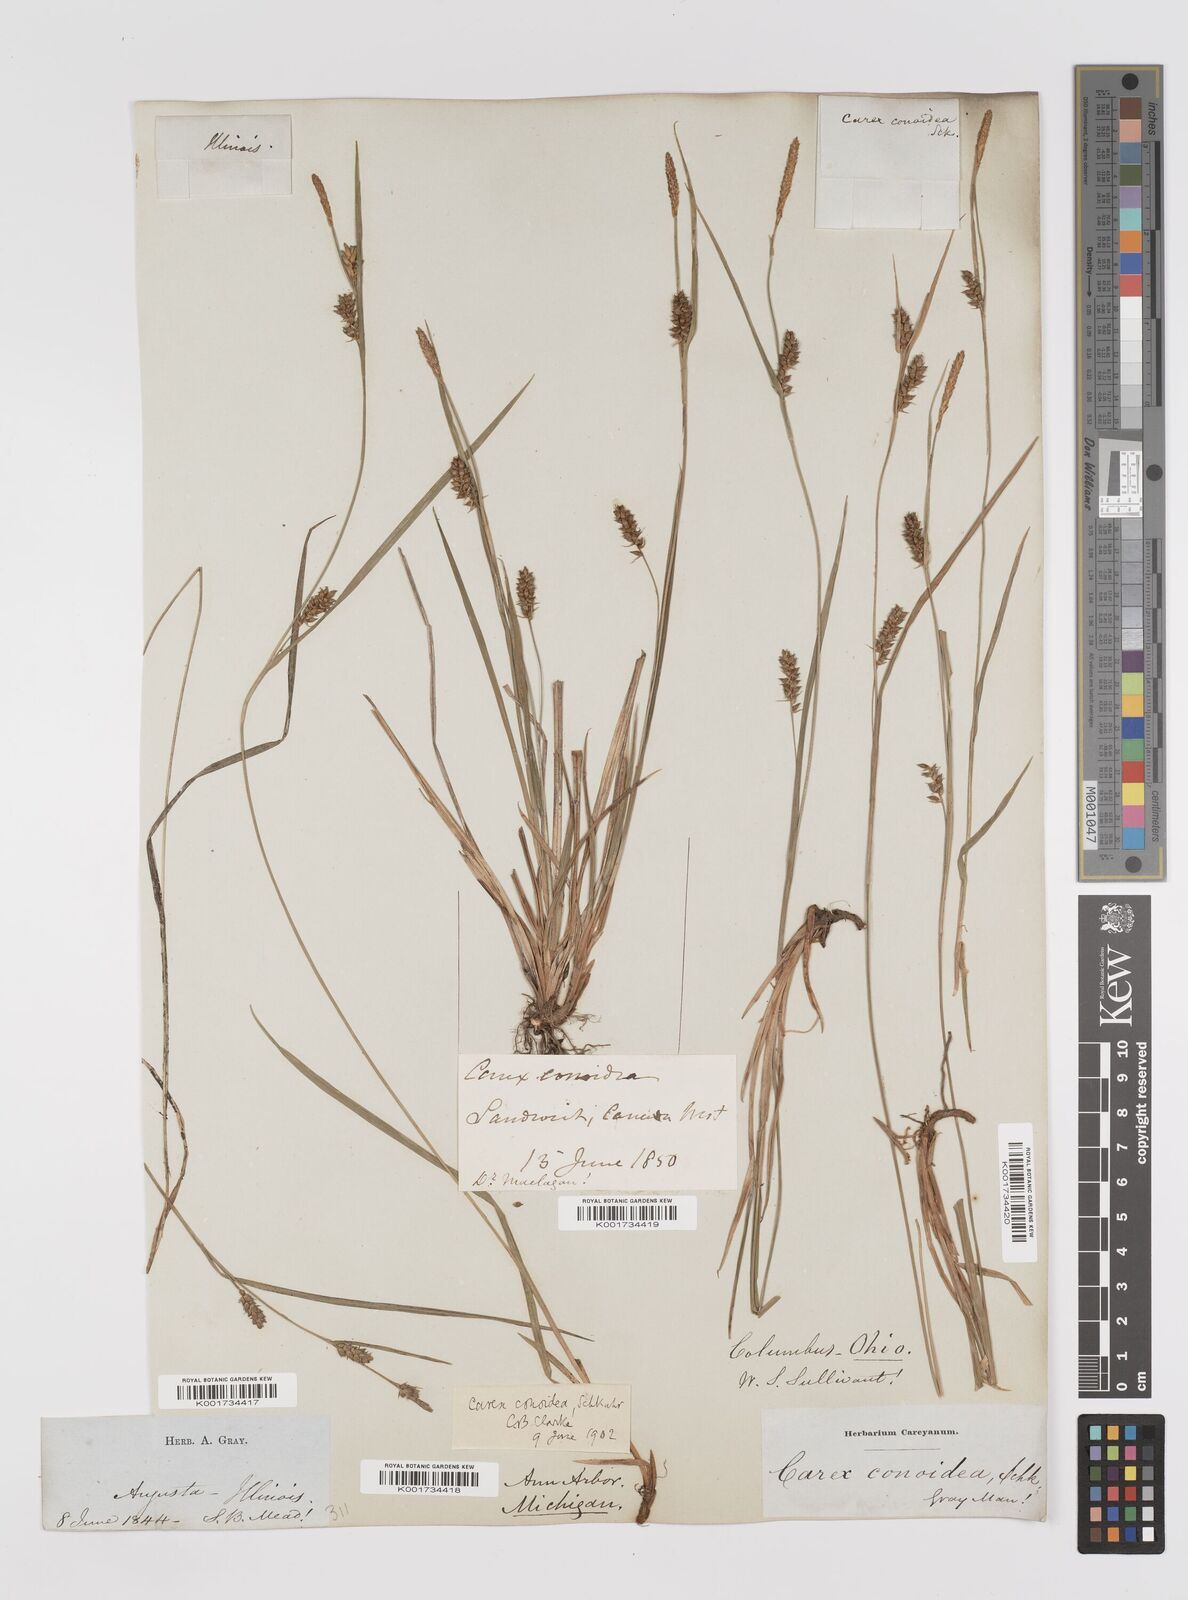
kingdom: Plantae
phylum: Tracheophyta
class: Liliopsida
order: Poales
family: Cyperaceae
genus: Carex
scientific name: Carex conoidea
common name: Cone shaped sedge
